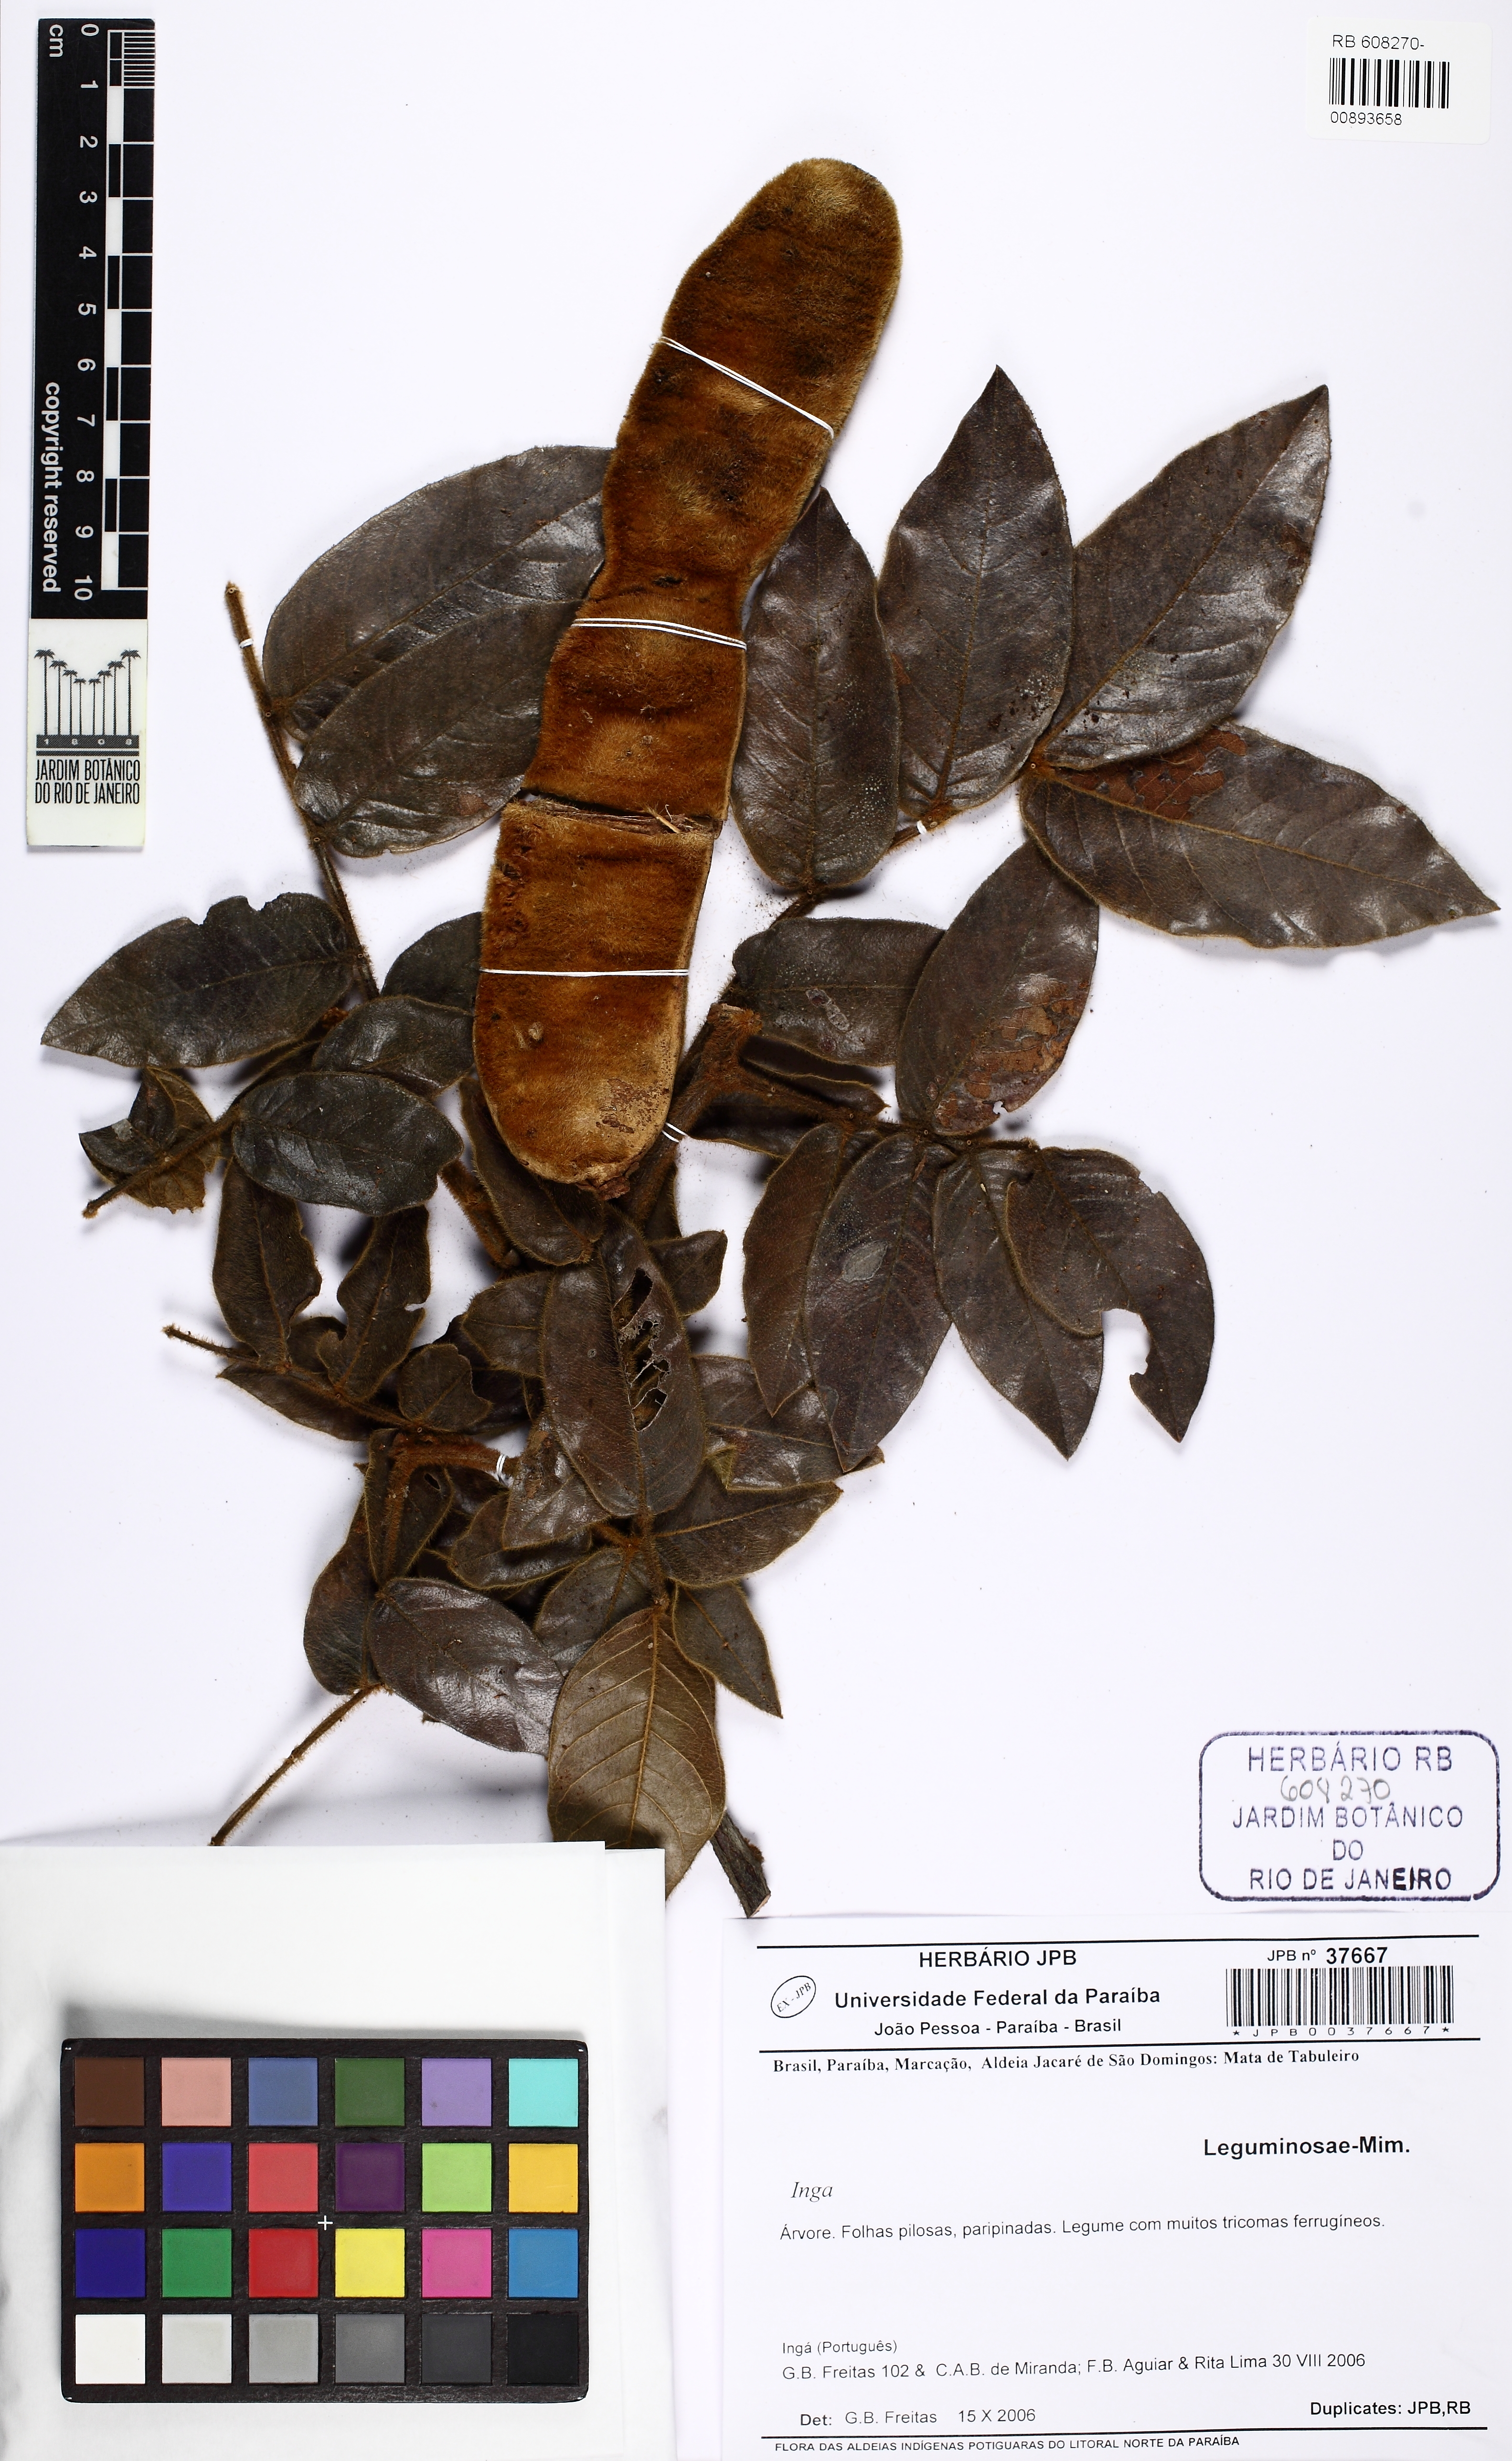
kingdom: Plantae
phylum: Tracheophyta
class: Magnoliopsida
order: Fabales
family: Fabaceae
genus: Inga
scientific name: Inga
